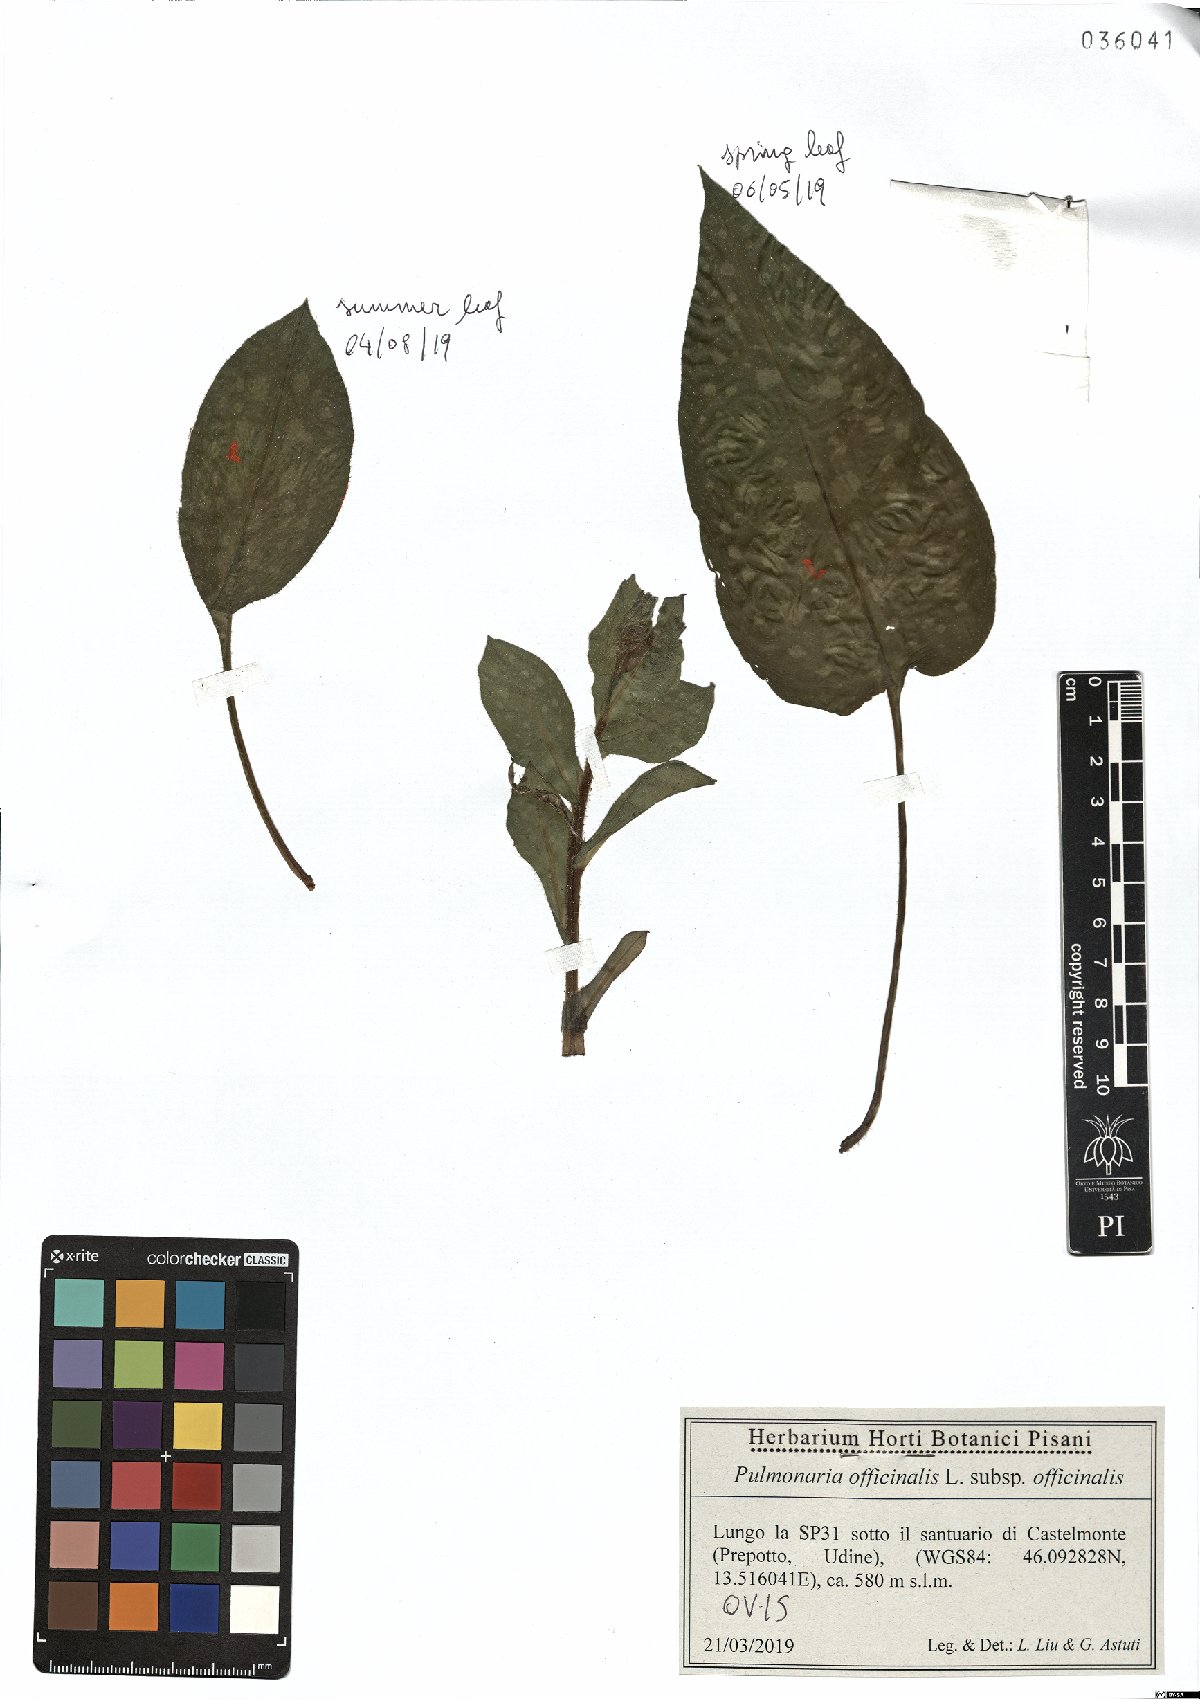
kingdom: Plantae
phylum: Tracheophyta
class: Magnoliopsida
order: Boraginales
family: Boraginaceae
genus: Pulmonaria
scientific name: Pulmonaria officinalis
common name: Lungwort
